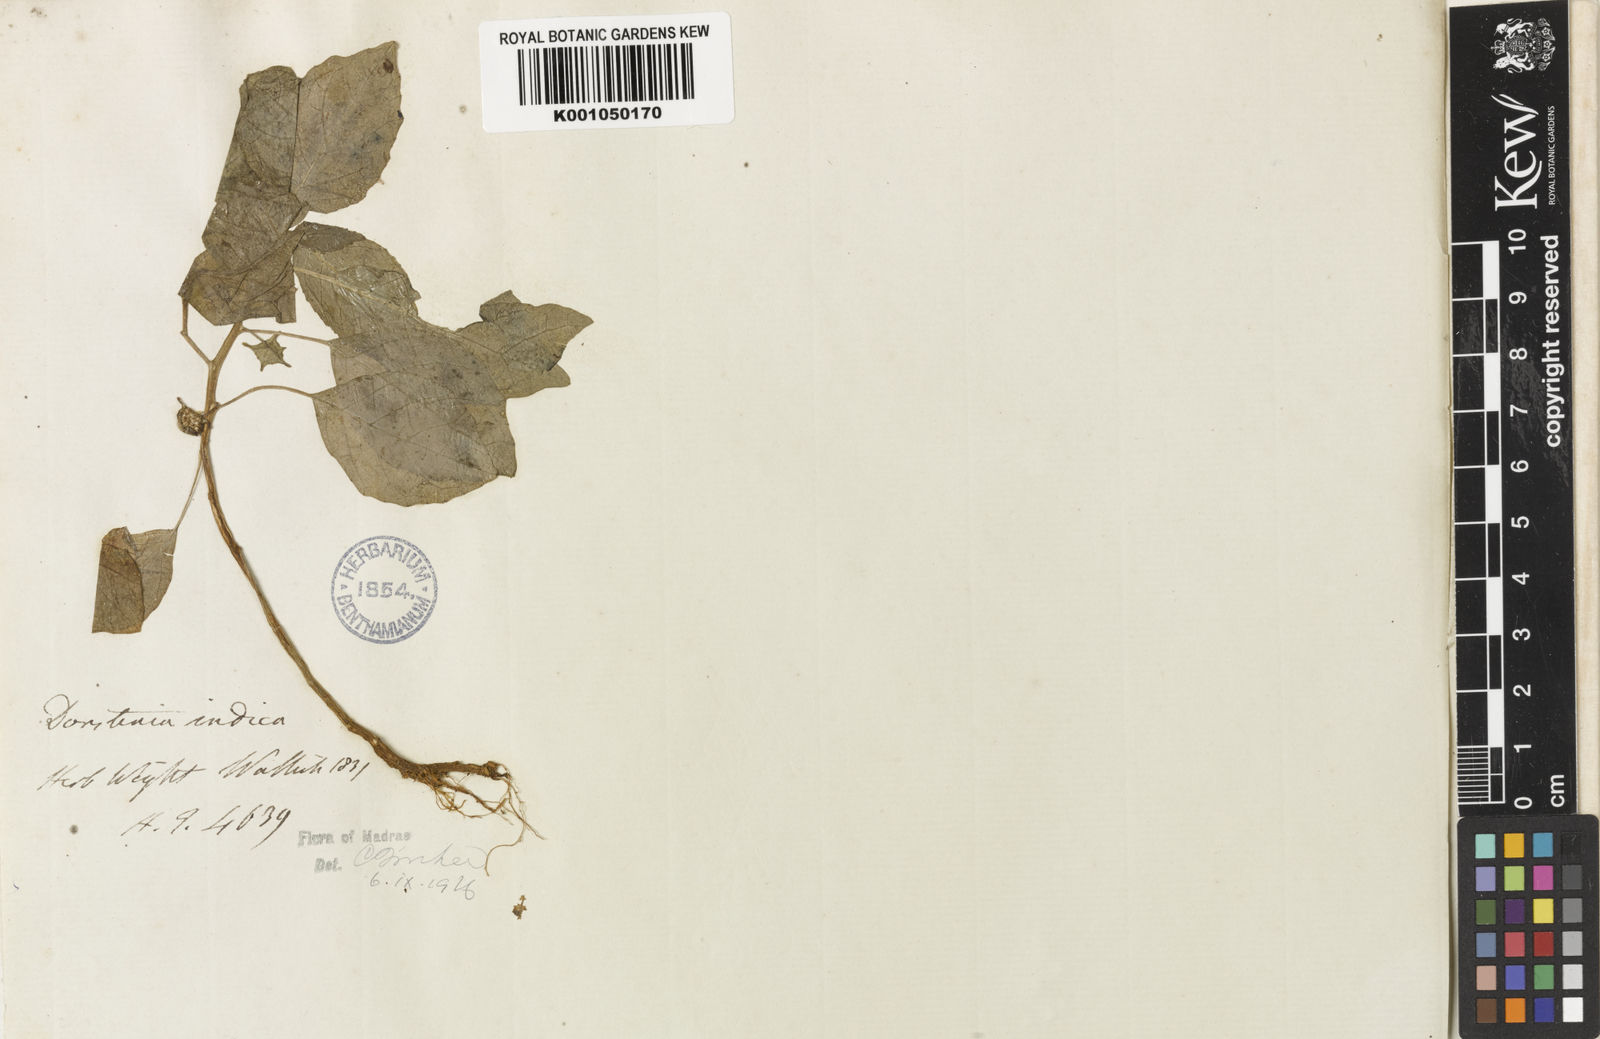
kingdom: Plantae
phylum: Tracheophyta
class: Magnoliopsida
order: Rosales
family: Moraceae
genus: Dorstenia
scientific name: Dorstenia indica
